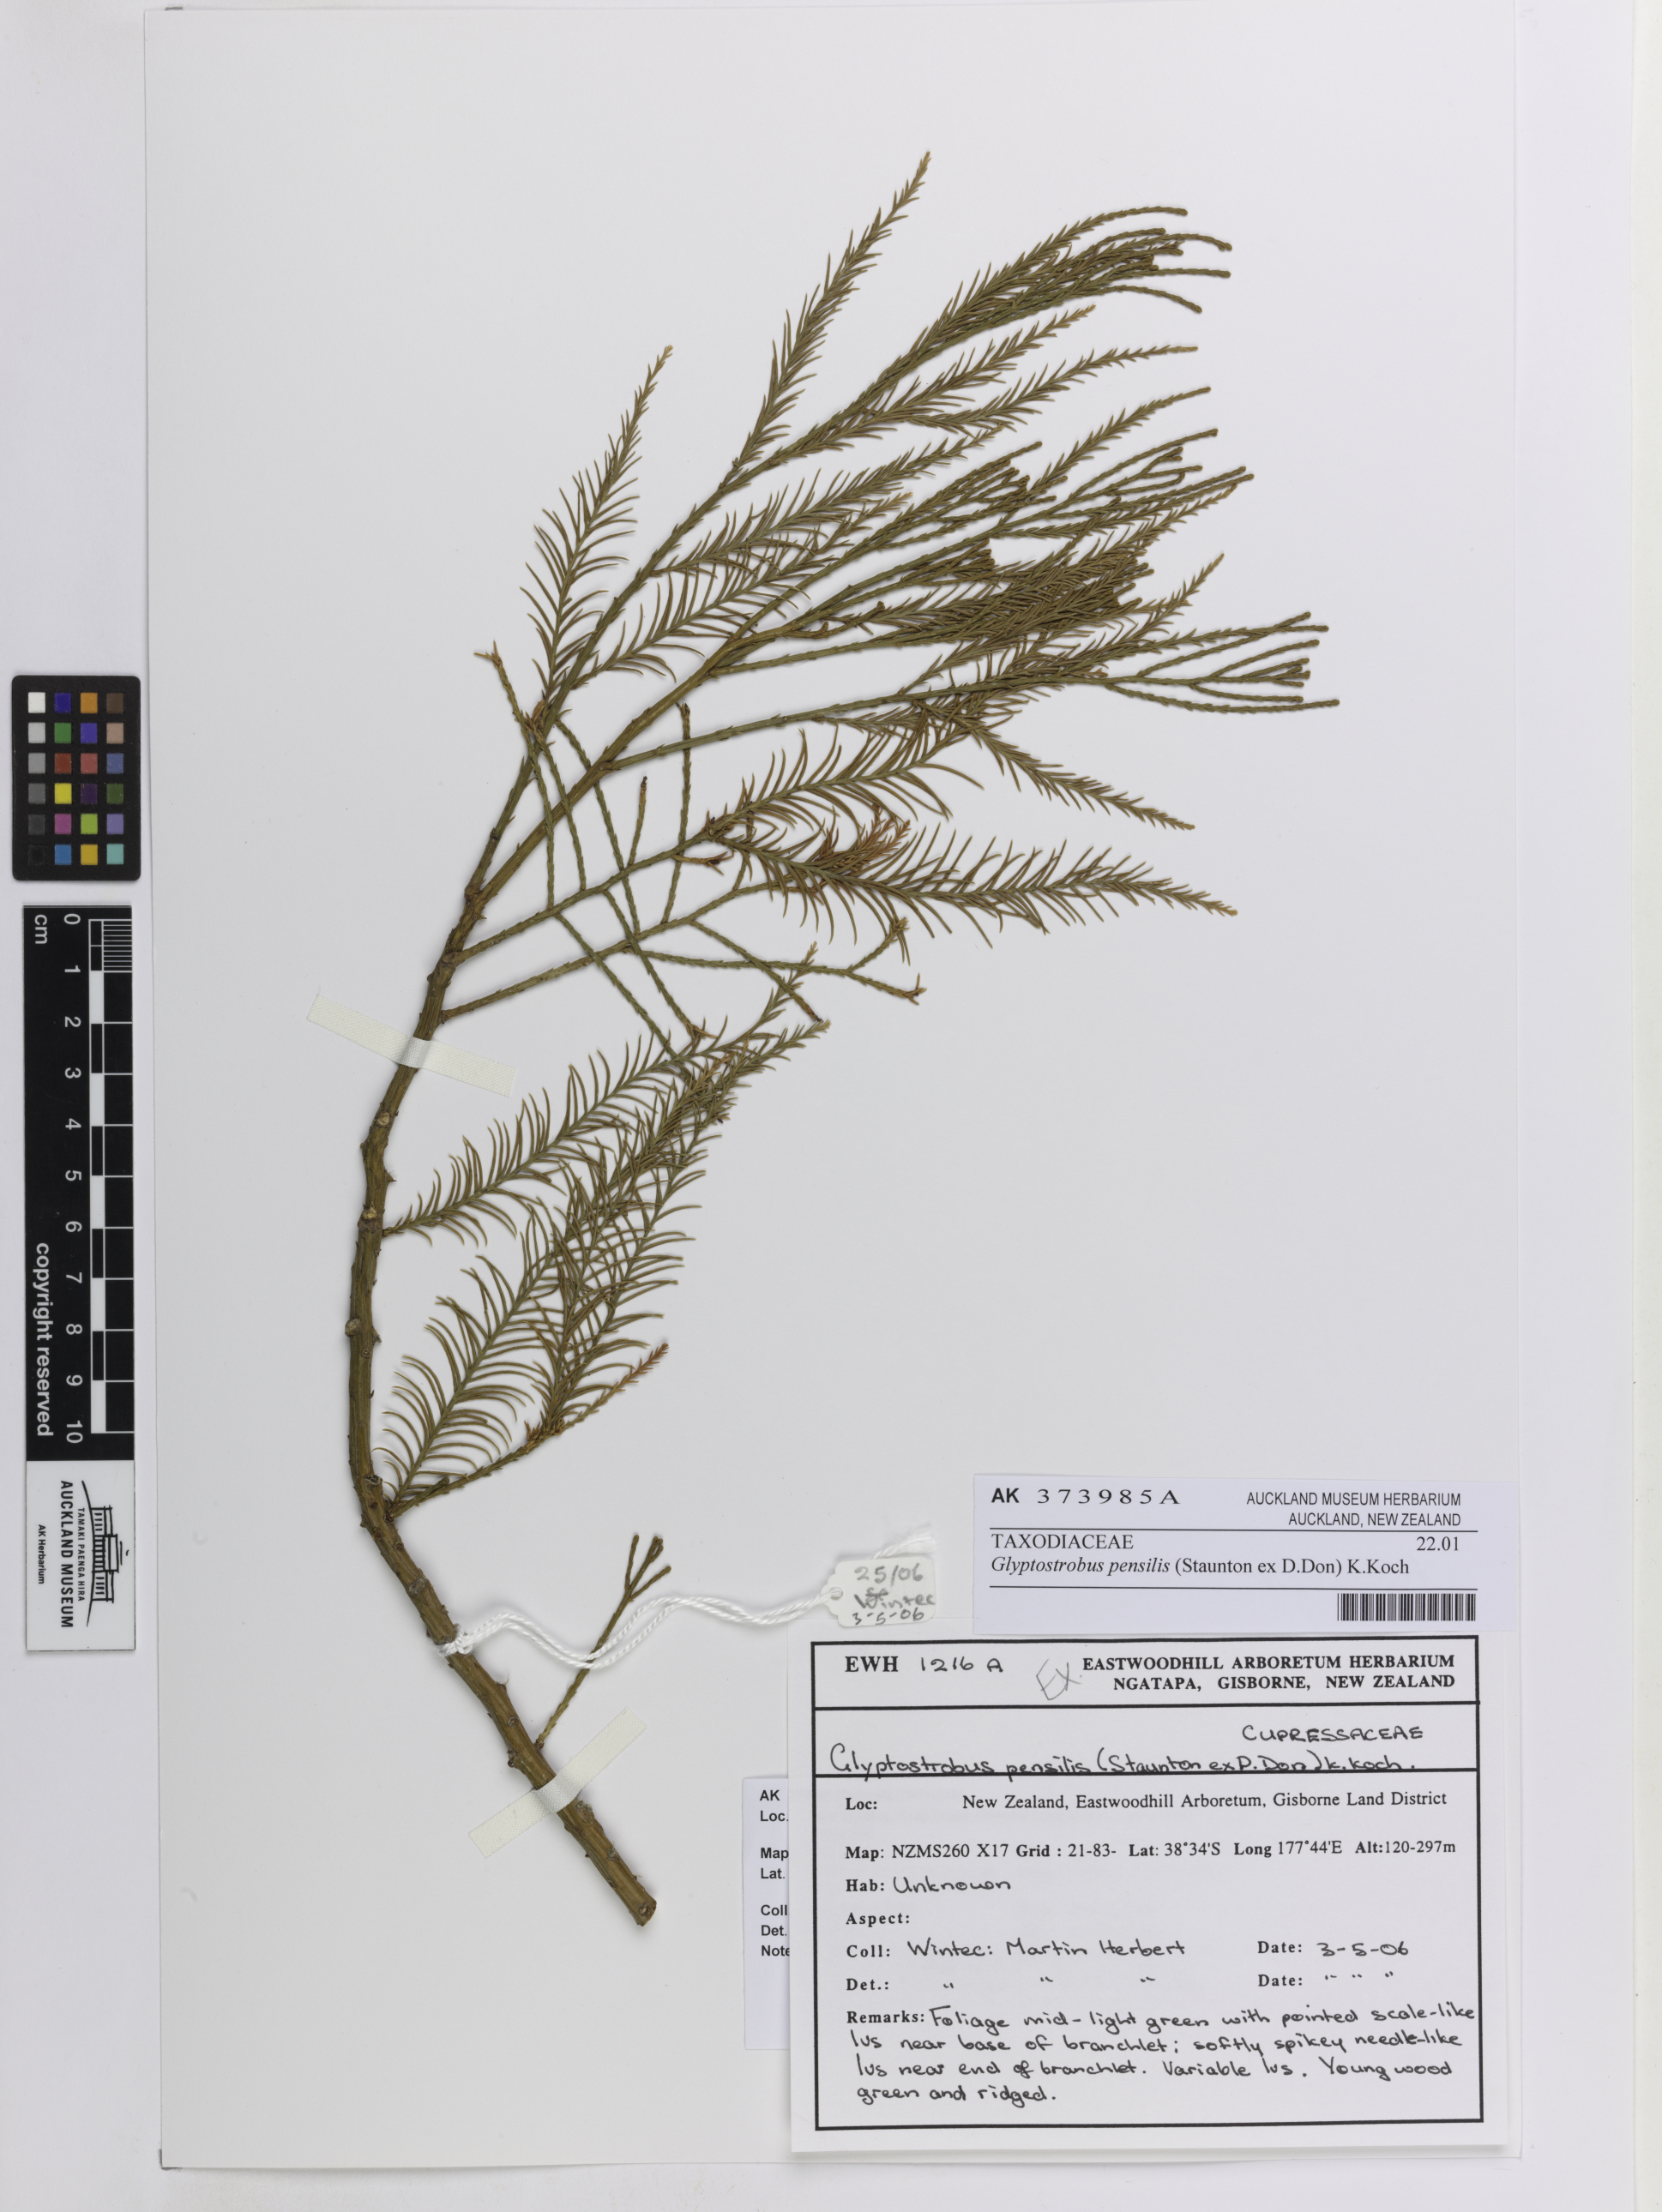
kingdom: Plantae
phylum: Tracheophyta
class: Pinopsida
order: Pinales
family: Cupressaceae
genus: Glyptostrobus
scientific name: Glyptostrobus pensilis
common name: Chines swamp cypress
